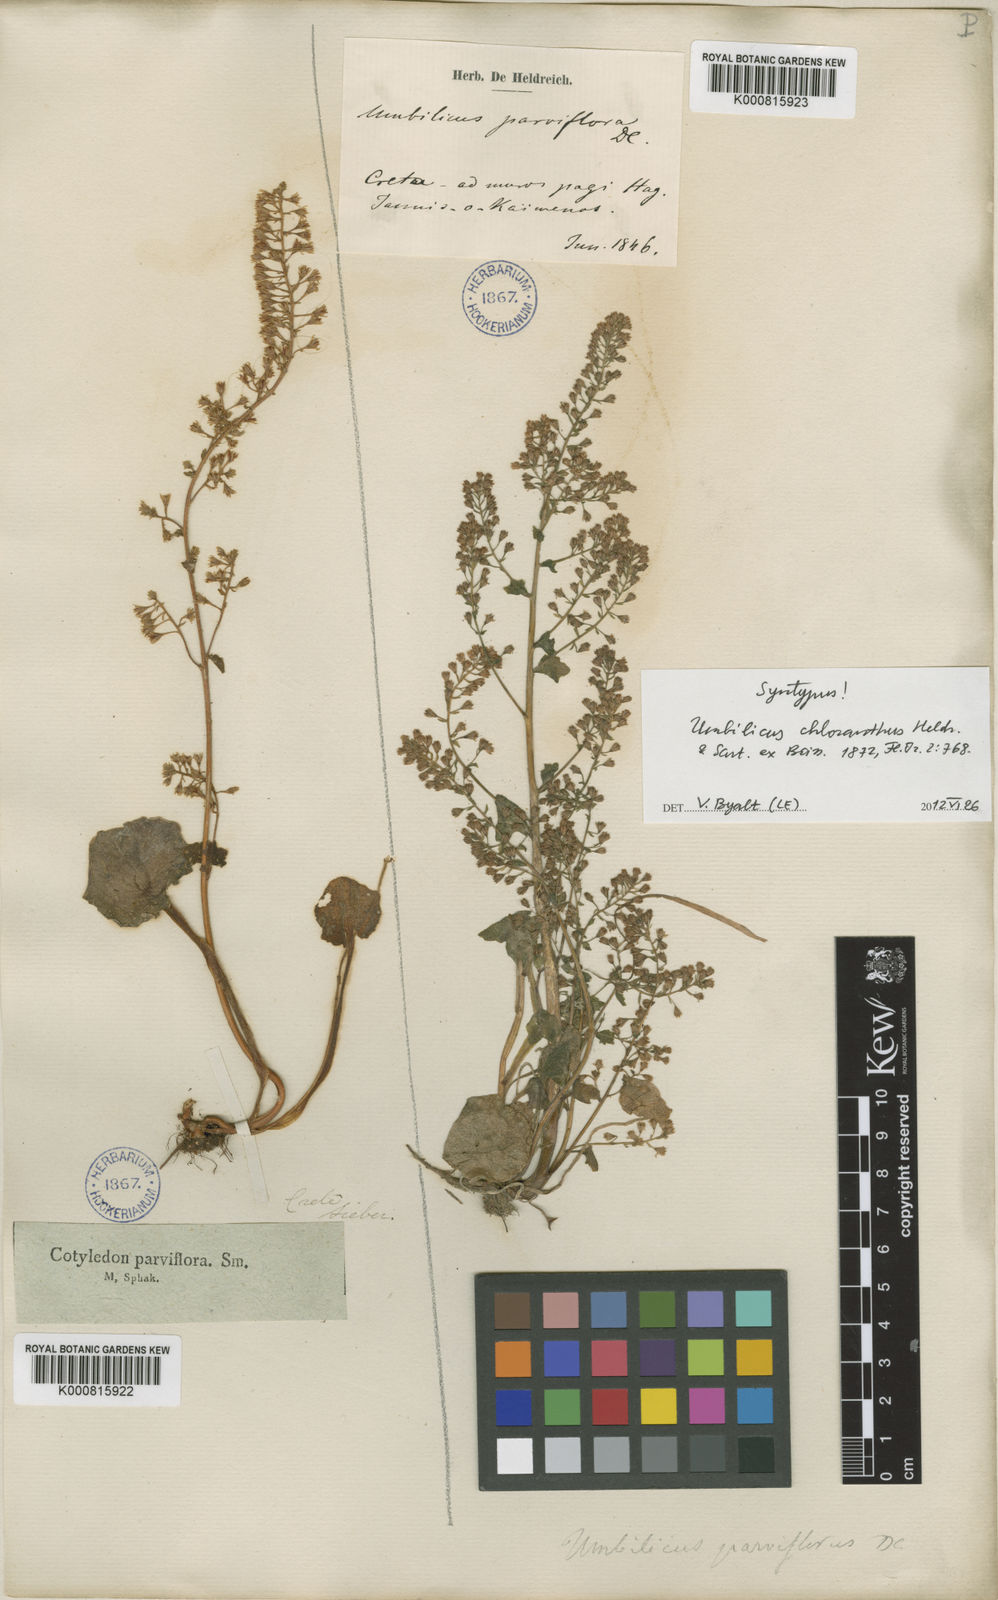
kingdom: Plantae
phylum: Tracheophyta
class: Magnoliopsida
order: Saxifragales
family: Crassulaceae
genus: Umbilicus
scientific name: Umbilicus chloranthus
